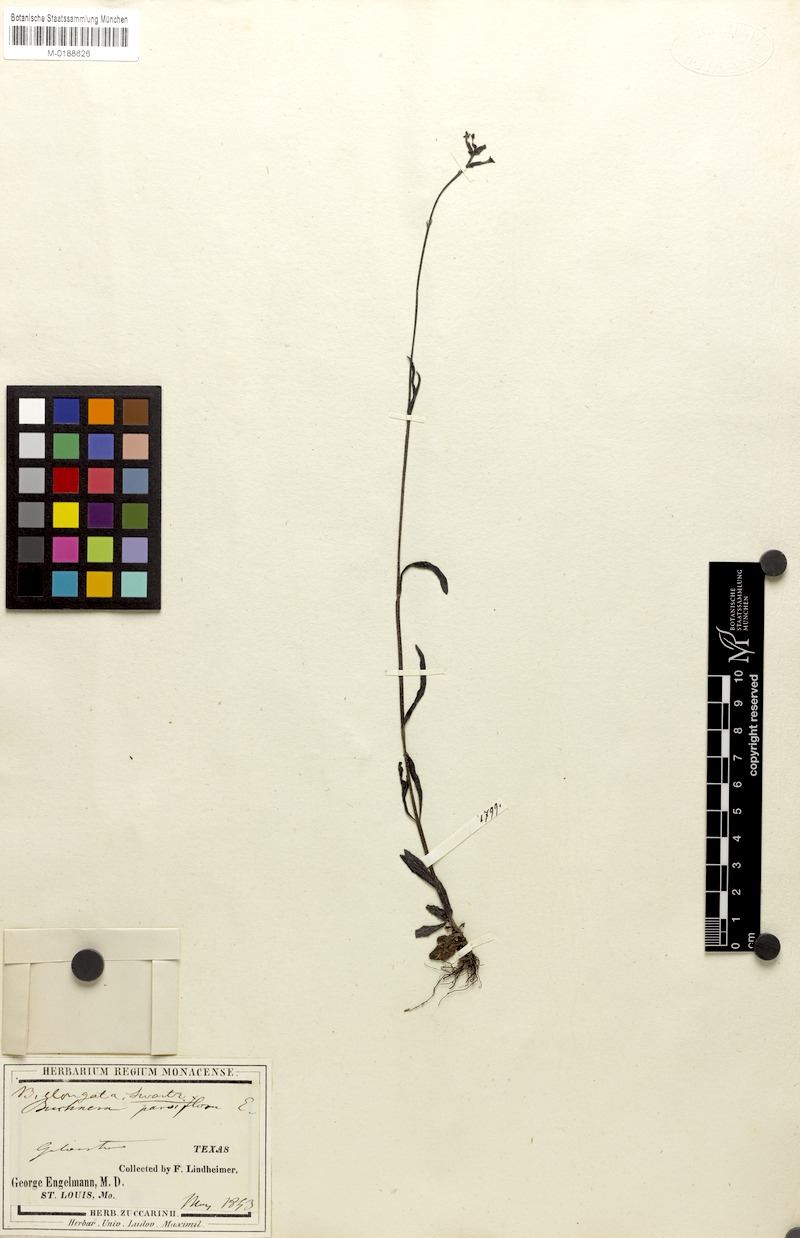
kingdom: Plantae
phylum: Tracheophyta
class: Magnoliopsida
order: Lamiales
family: Orobanchaceae
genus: Striga
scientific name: Striga parviflora
